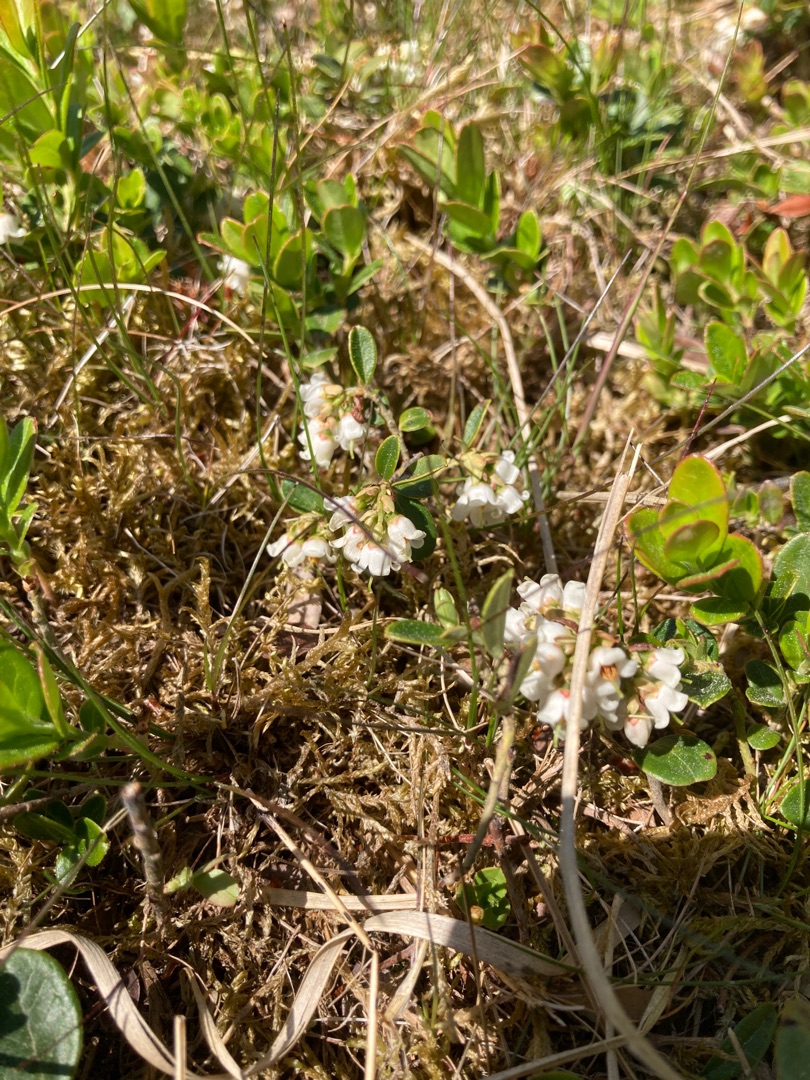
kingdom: Plantae
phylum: Tracheophyta
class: Magnoliopsida
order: Ericales
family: Ericaceae
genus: Vaccinium
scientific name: Vaccinium vitis-idaea
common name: Tyttebær
